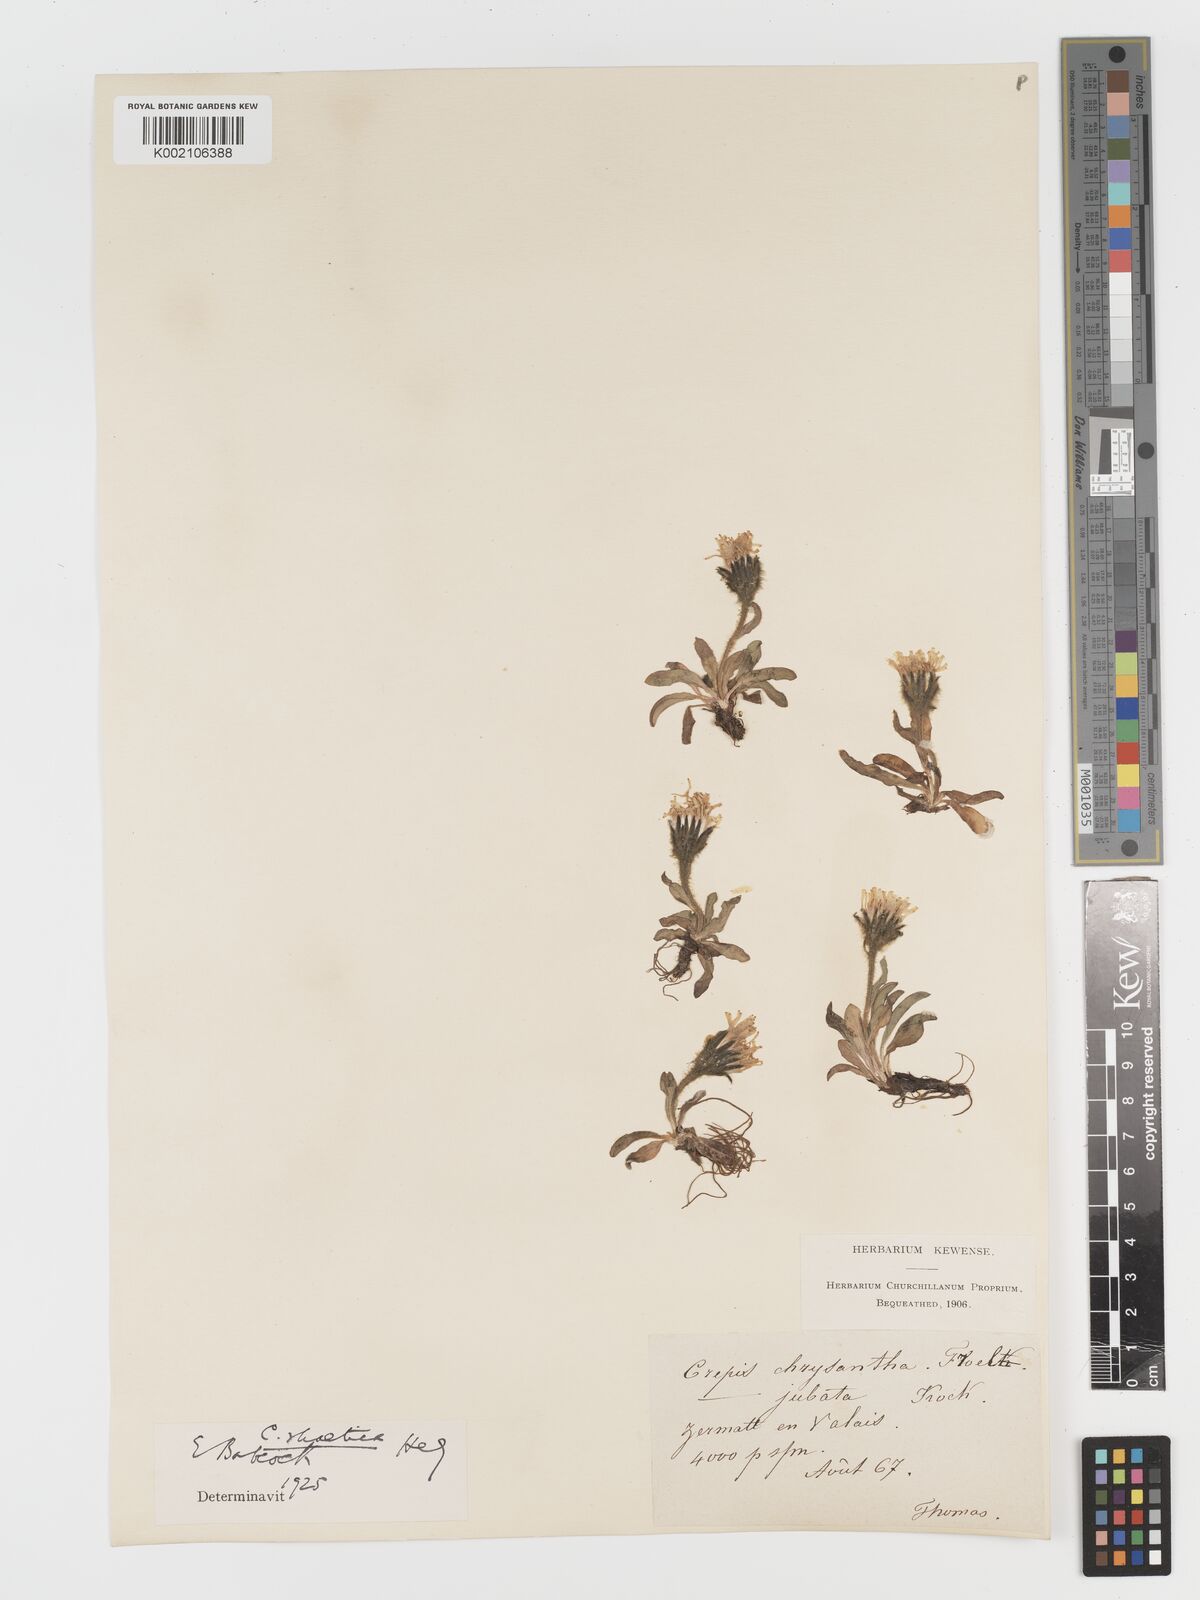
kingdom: Plantae
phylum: Tracheophyta
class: Magnoliopsida
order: Asterales
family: Asteraceae
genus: Crepis
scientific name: Crepis rhaetica
